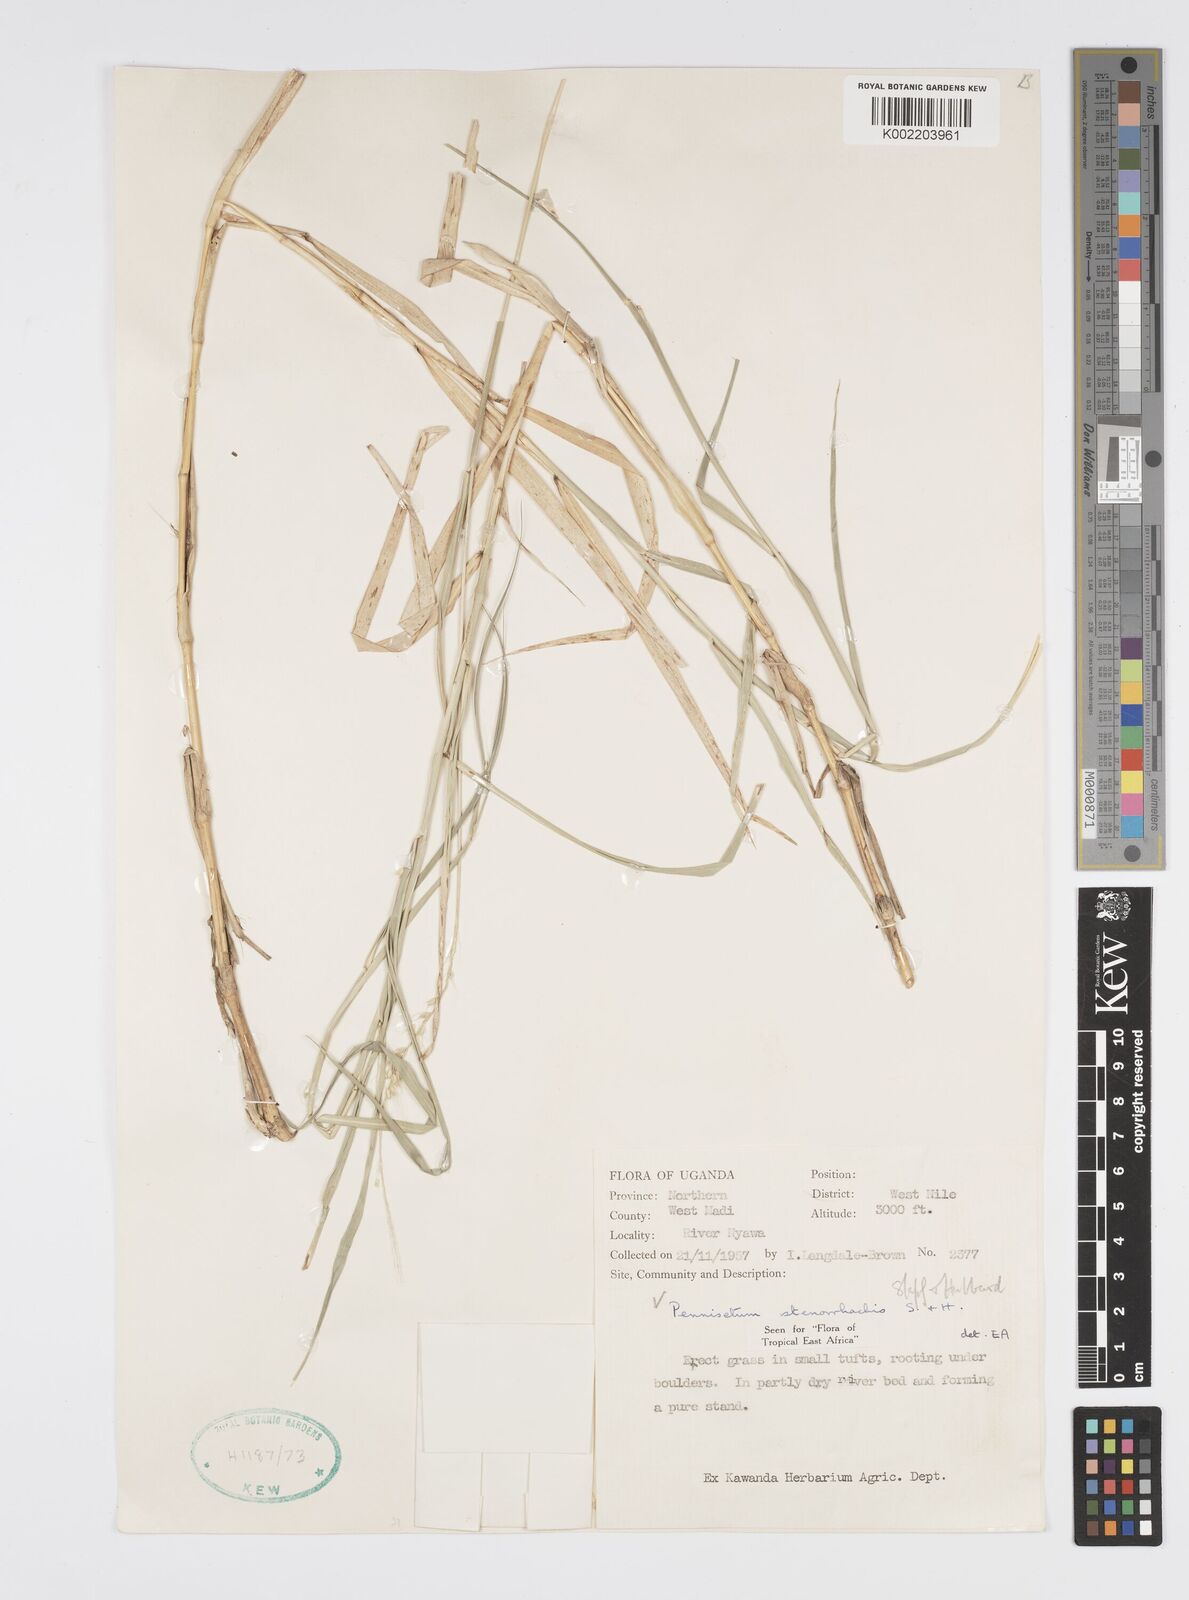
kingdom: Plantae
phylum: Tracheophyta
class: Liliopsida
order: Poales
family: Poaceae
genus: Cenchrus
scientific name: Cenchrus caudatus
